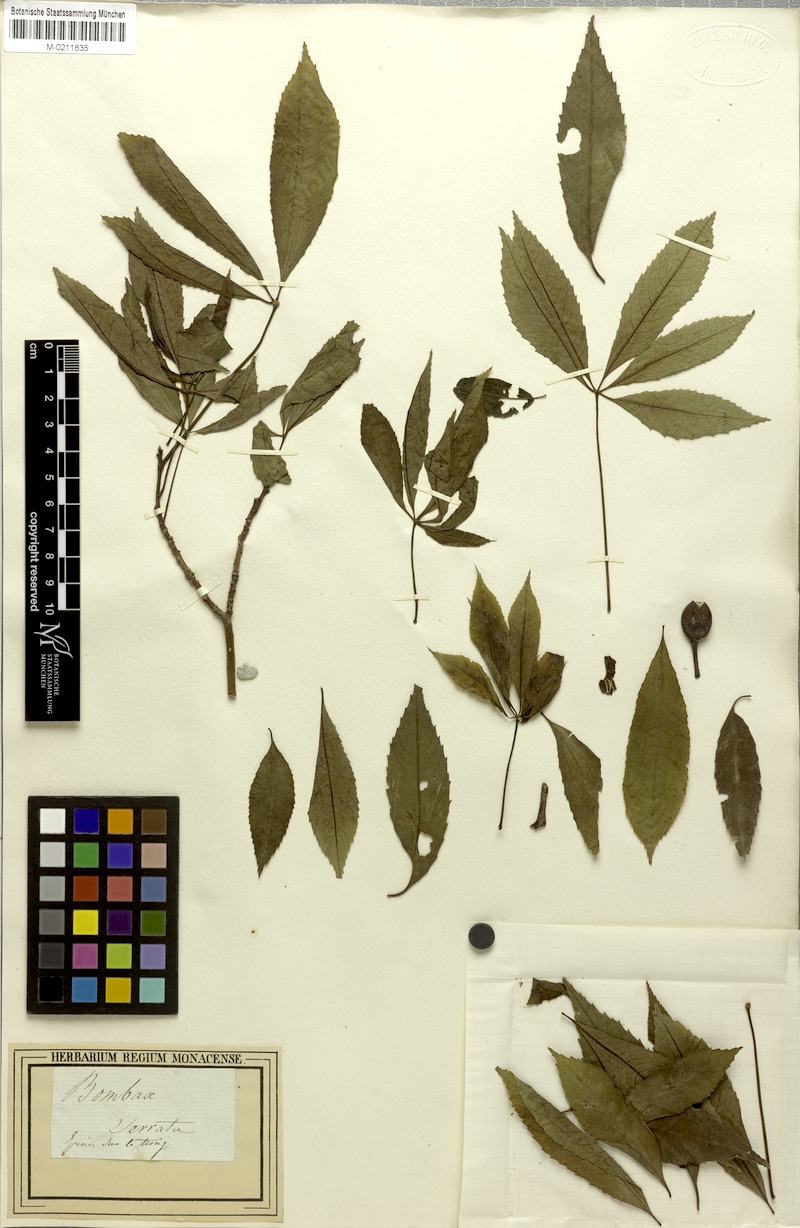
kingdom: Plantae
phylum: Tracheophyta
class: Magnoliopsida
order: Malvales
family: Malvaceae
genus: Ceiba
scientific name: Ceiba speciosa
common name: Silk-floss tree
